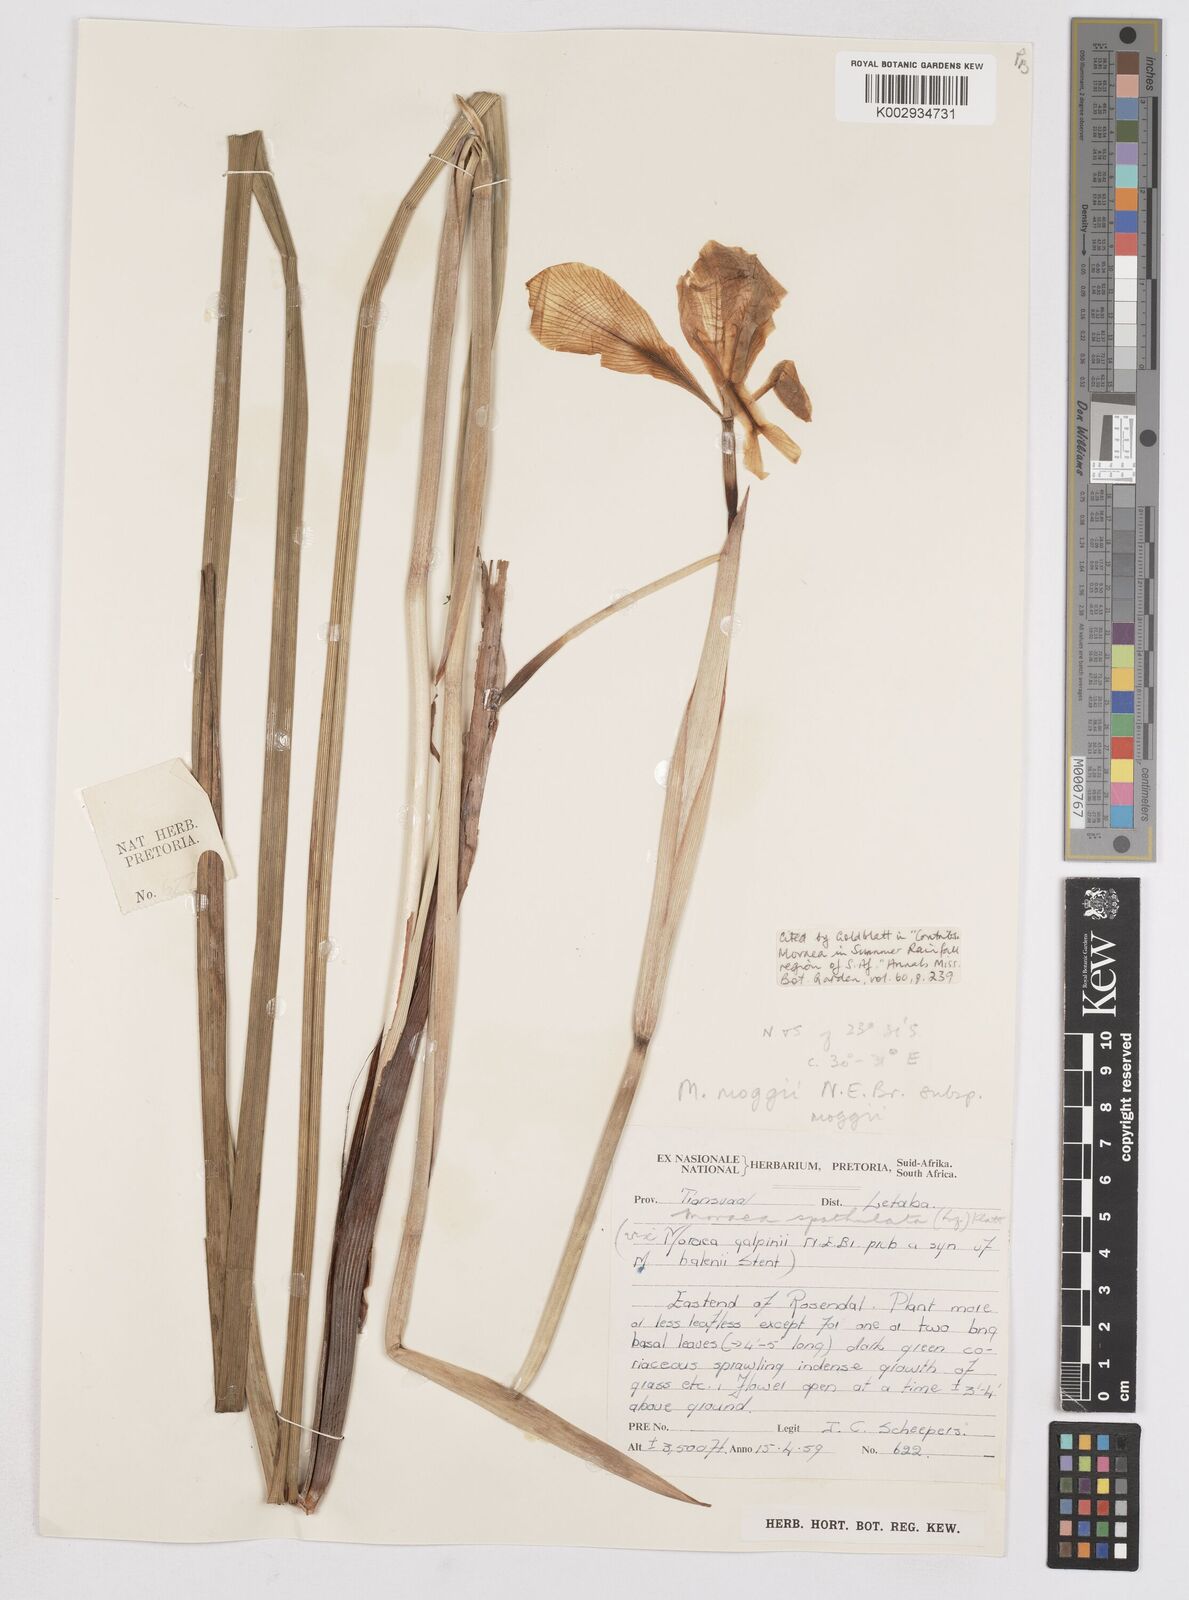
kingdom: Plantae
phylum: Tracheophyta
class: Liliopsida
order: Asparagales
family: Iridaceae
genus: Moraea
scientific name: Moraea moggii
